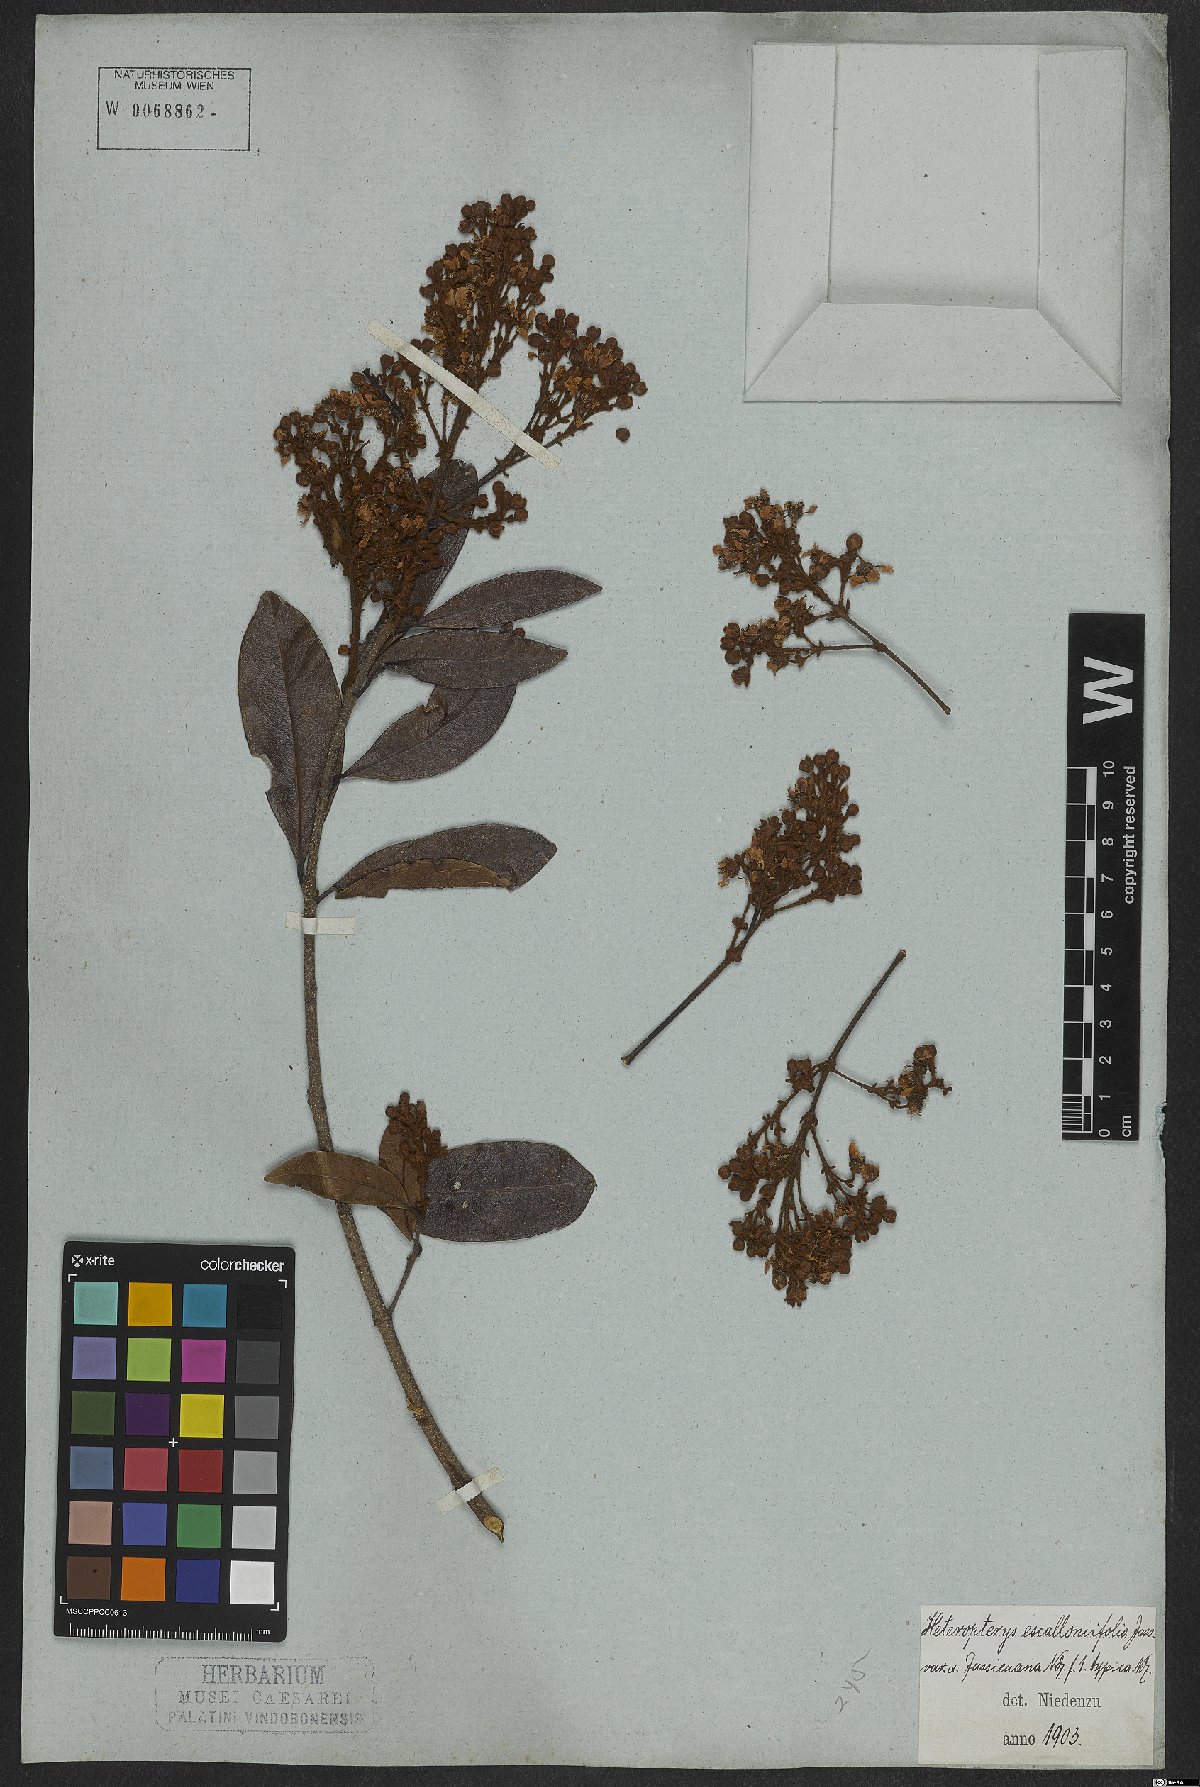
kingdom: Plantae
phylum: Tracheophyta
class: Magnoliopsida
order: Malpighiales
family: Malpighiaceae
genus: Heteropterys
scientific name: Heteropterys escalloniifolia
